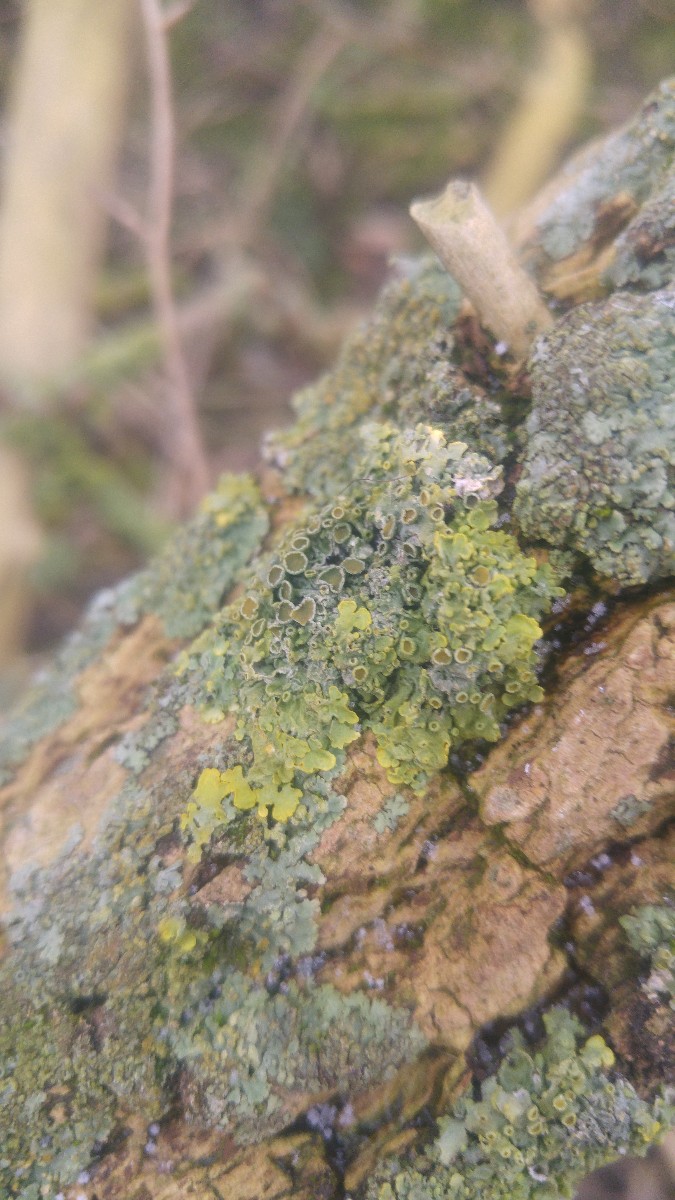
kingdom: Fungi
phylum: Ascomycota
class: Lecanoromycetes
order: Teloschistales
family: Teloschistaceae
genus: Xanthoria
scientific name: Xanthoria parietina
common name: almindelig væggelav
